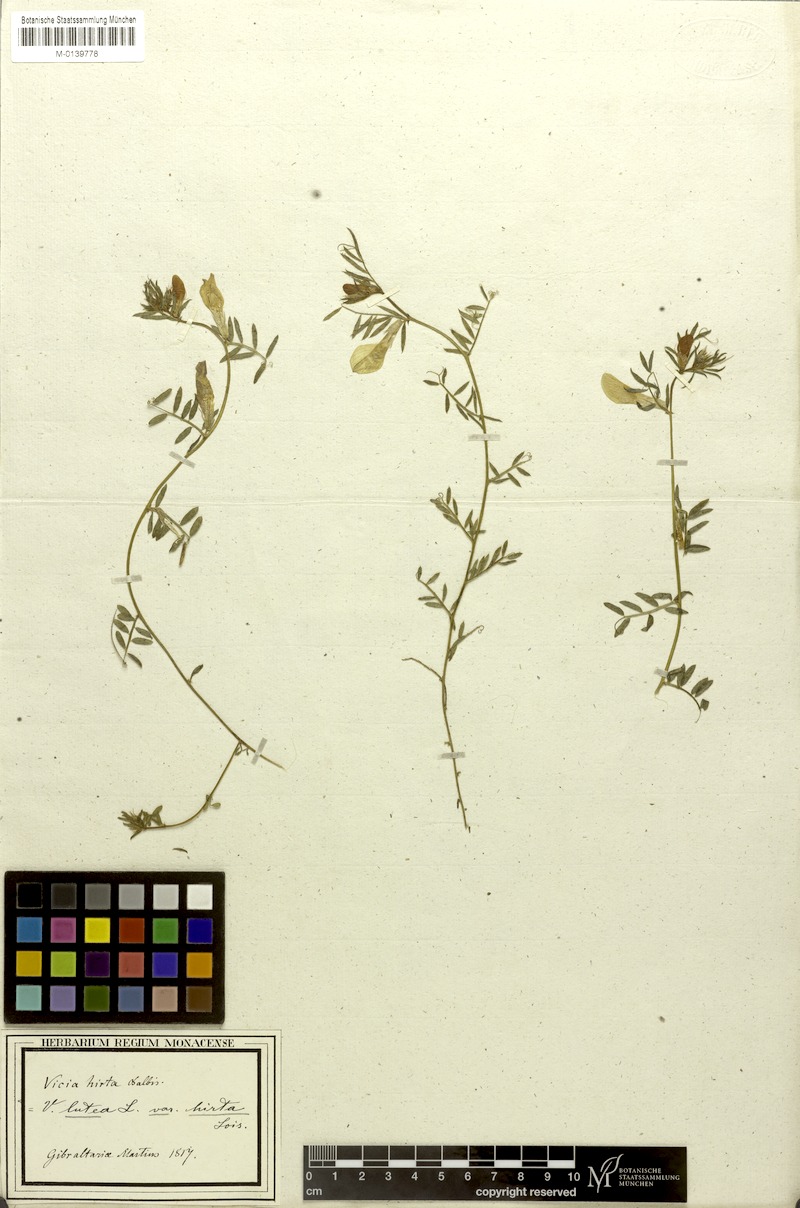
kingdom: Plantae
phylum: Tracheophyta
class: Magnoliopsida
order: Fabales
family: Fabaceae
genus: Vicia
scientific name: Vicia lutea
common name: Smooth yellow vetch
